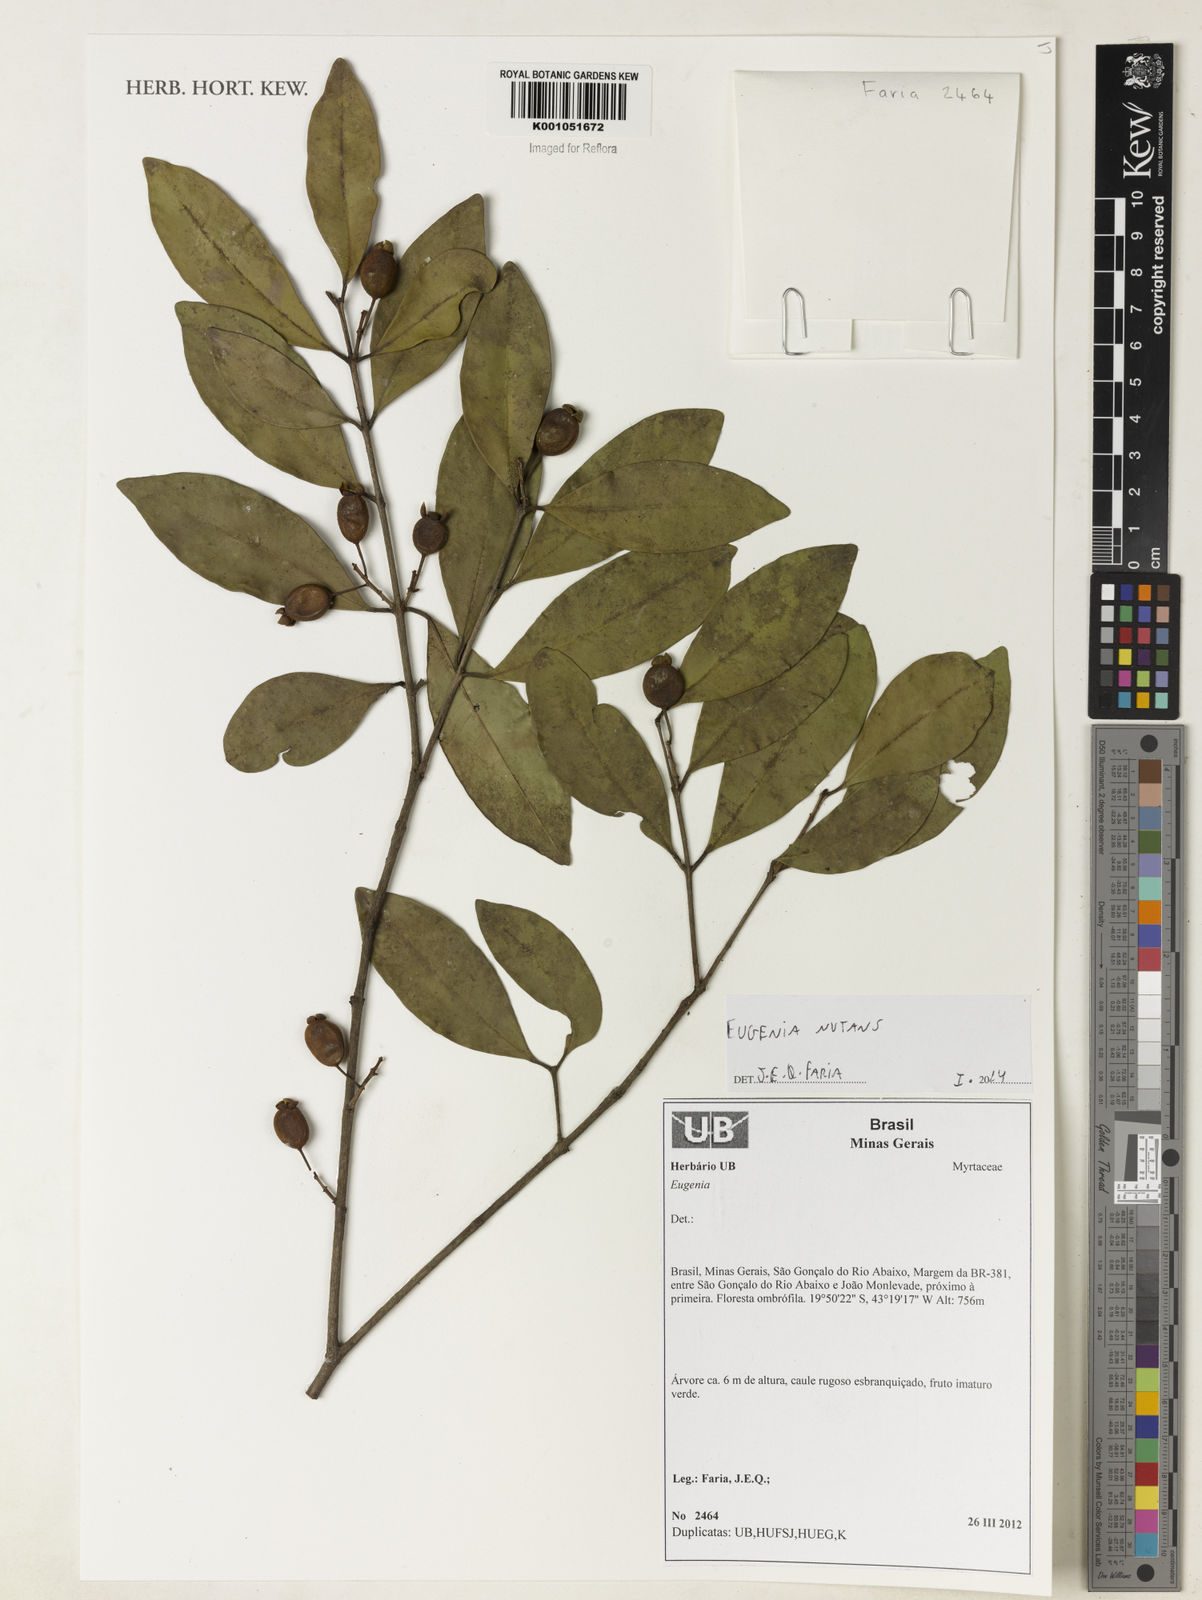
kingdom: Plantae
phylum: Tracheophyta
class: Magnoliopsida
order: Myrtales
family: Myrtaceae
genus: Eugenia
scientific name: Eugenia nutans
